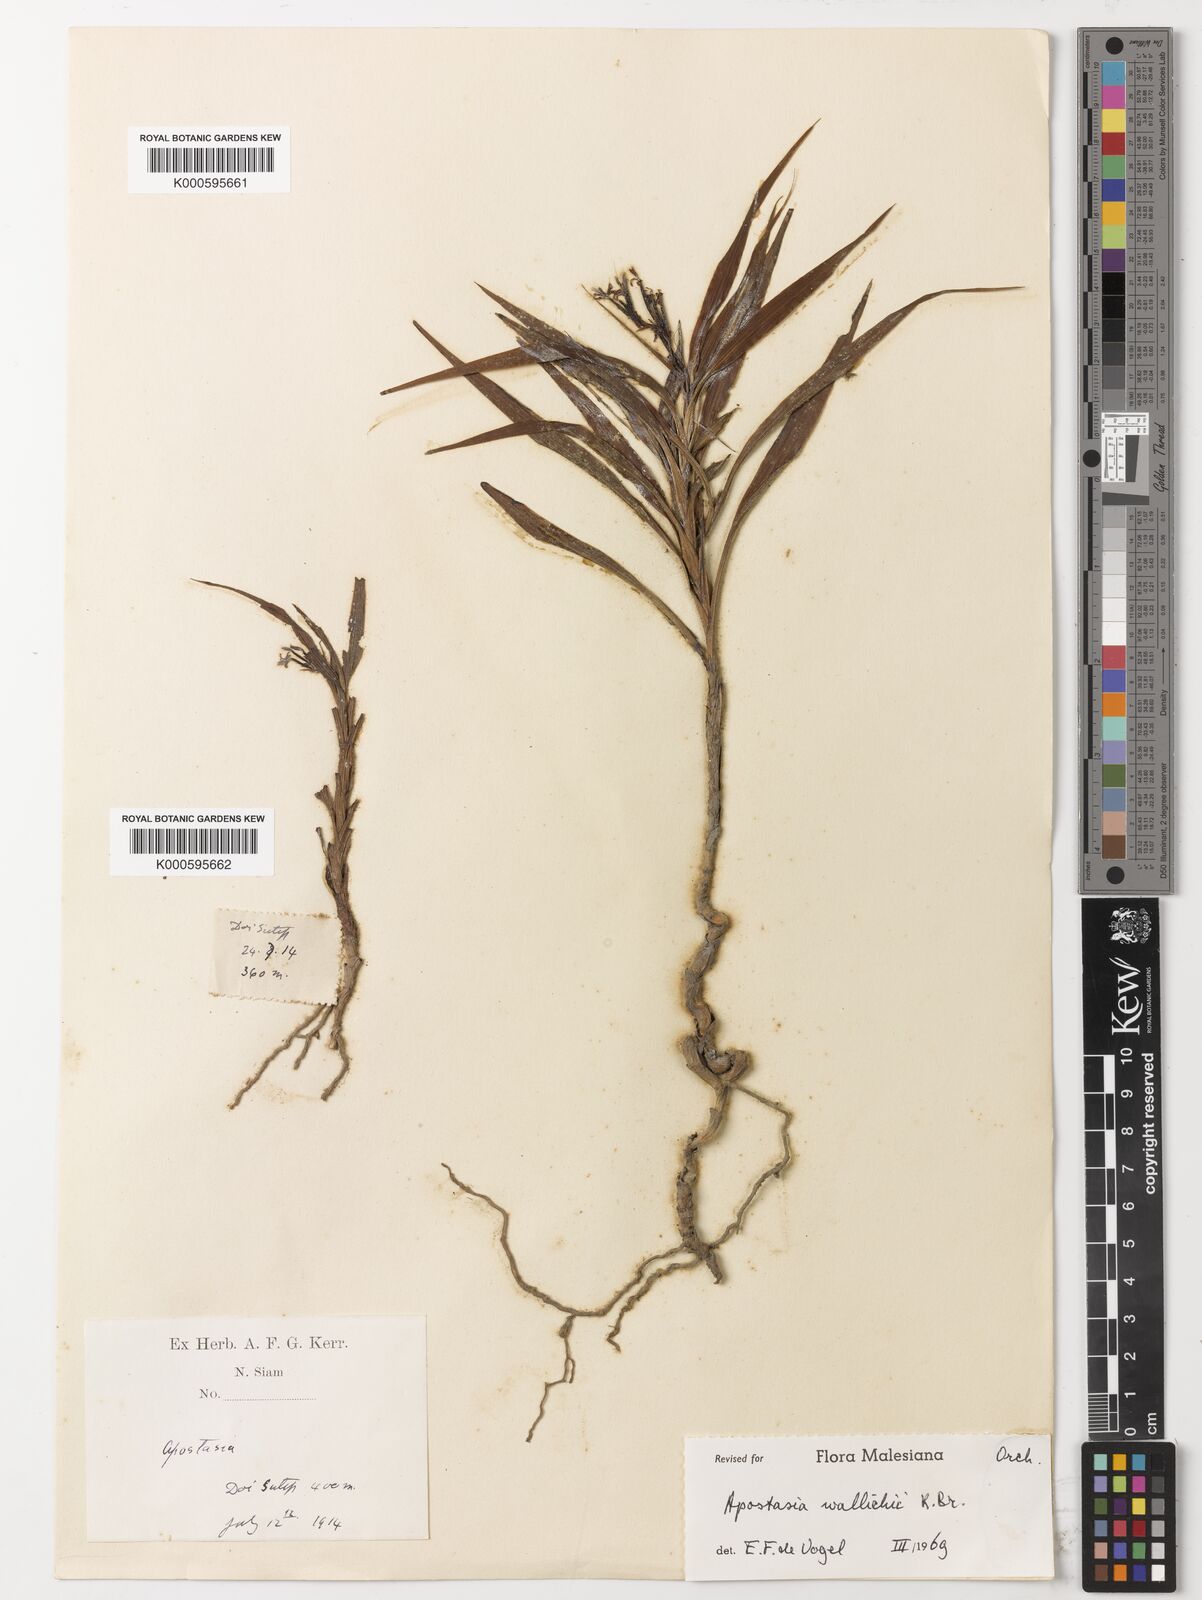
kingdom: Plantae
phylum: Tracheophyta
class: Liliopsida
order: Asparagales
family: Orchidaceae
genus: Apostasia
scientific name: Apostasia wallichii
